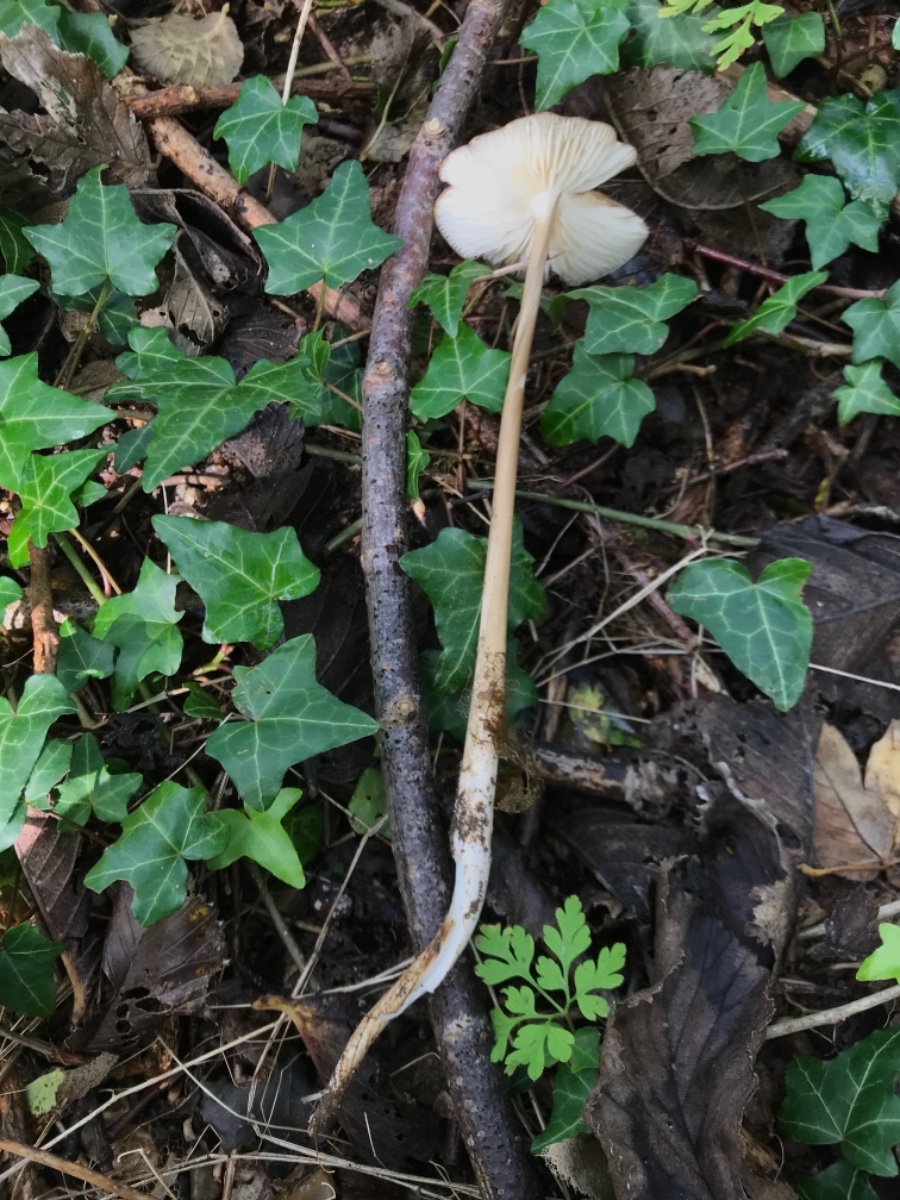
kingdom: Fungi
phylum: Basidiomycota
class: Agaricomycetes
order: Agaricales
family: Physalacriaceae
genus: Hymenopellis
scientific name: Hymenopellis radicata
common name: almindelig pælerodshat
